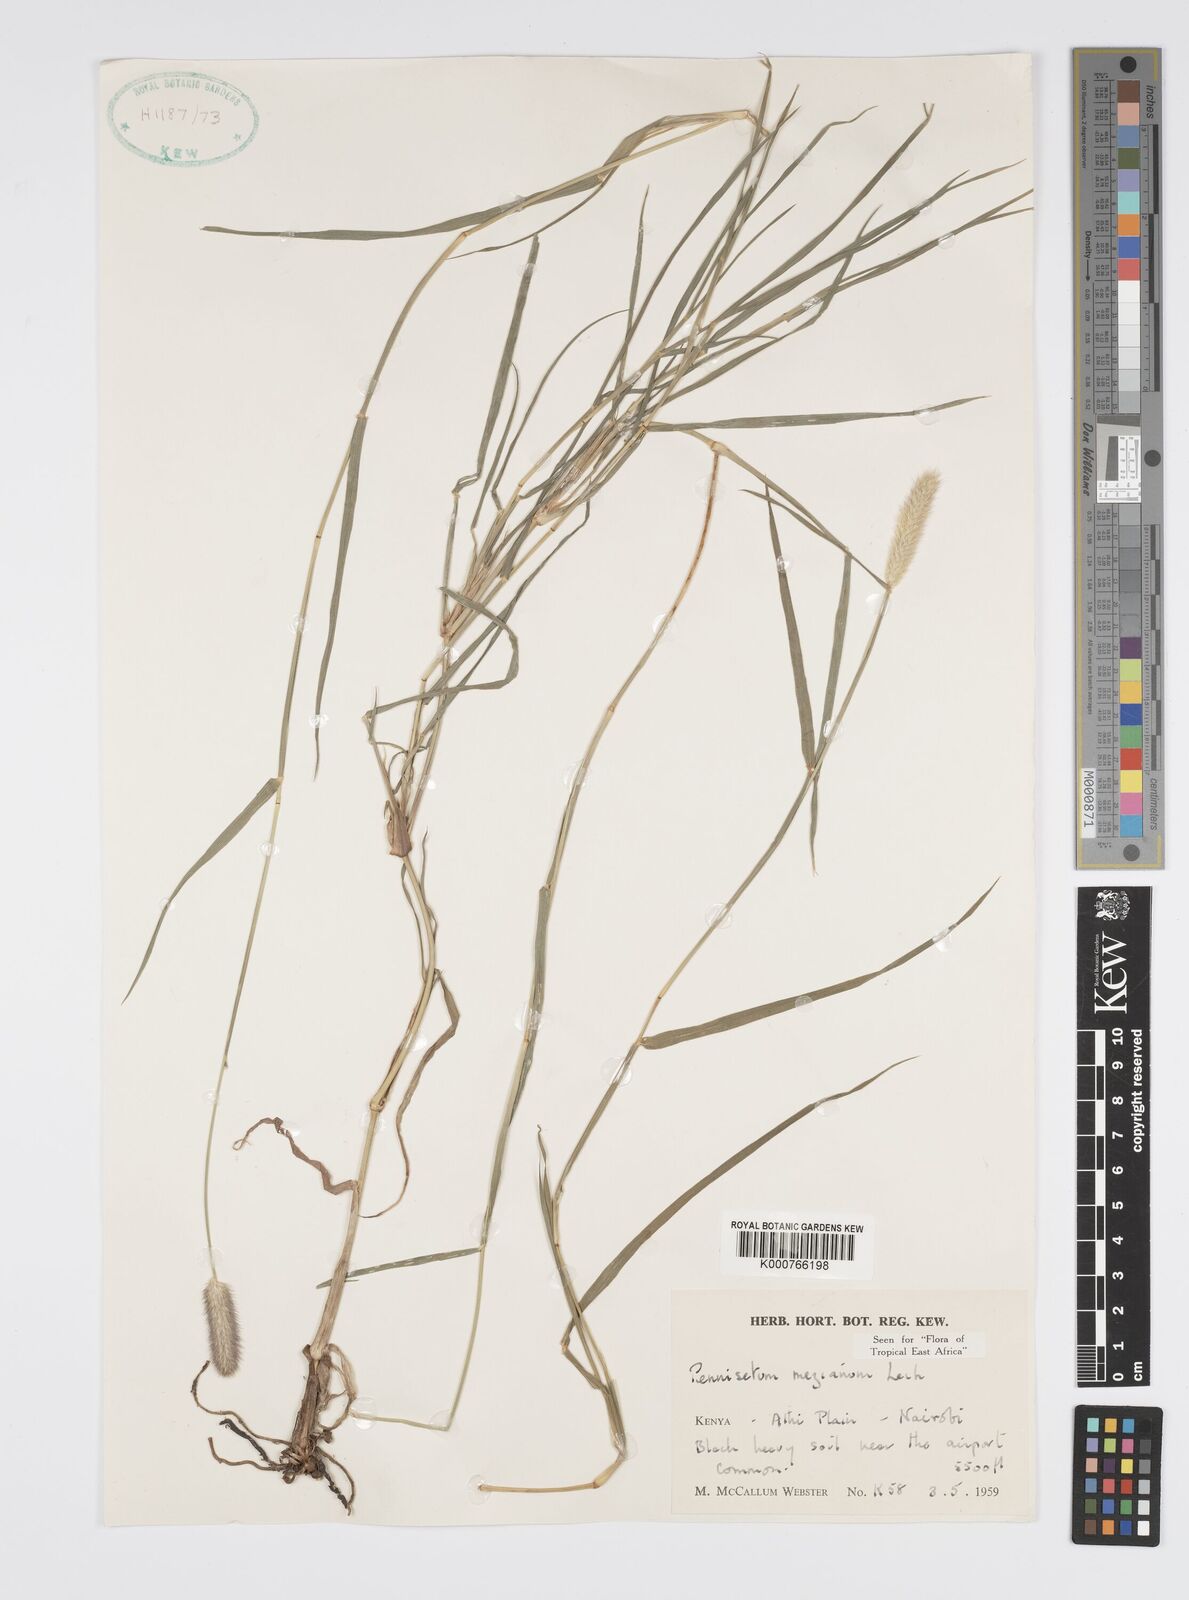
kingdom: Plantae
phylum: Tracheophyta
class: Liliopsida
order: Poales
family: Poaceae
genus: Cenchrus
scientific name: Cenchrus mezianus
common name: Bamboo grass
